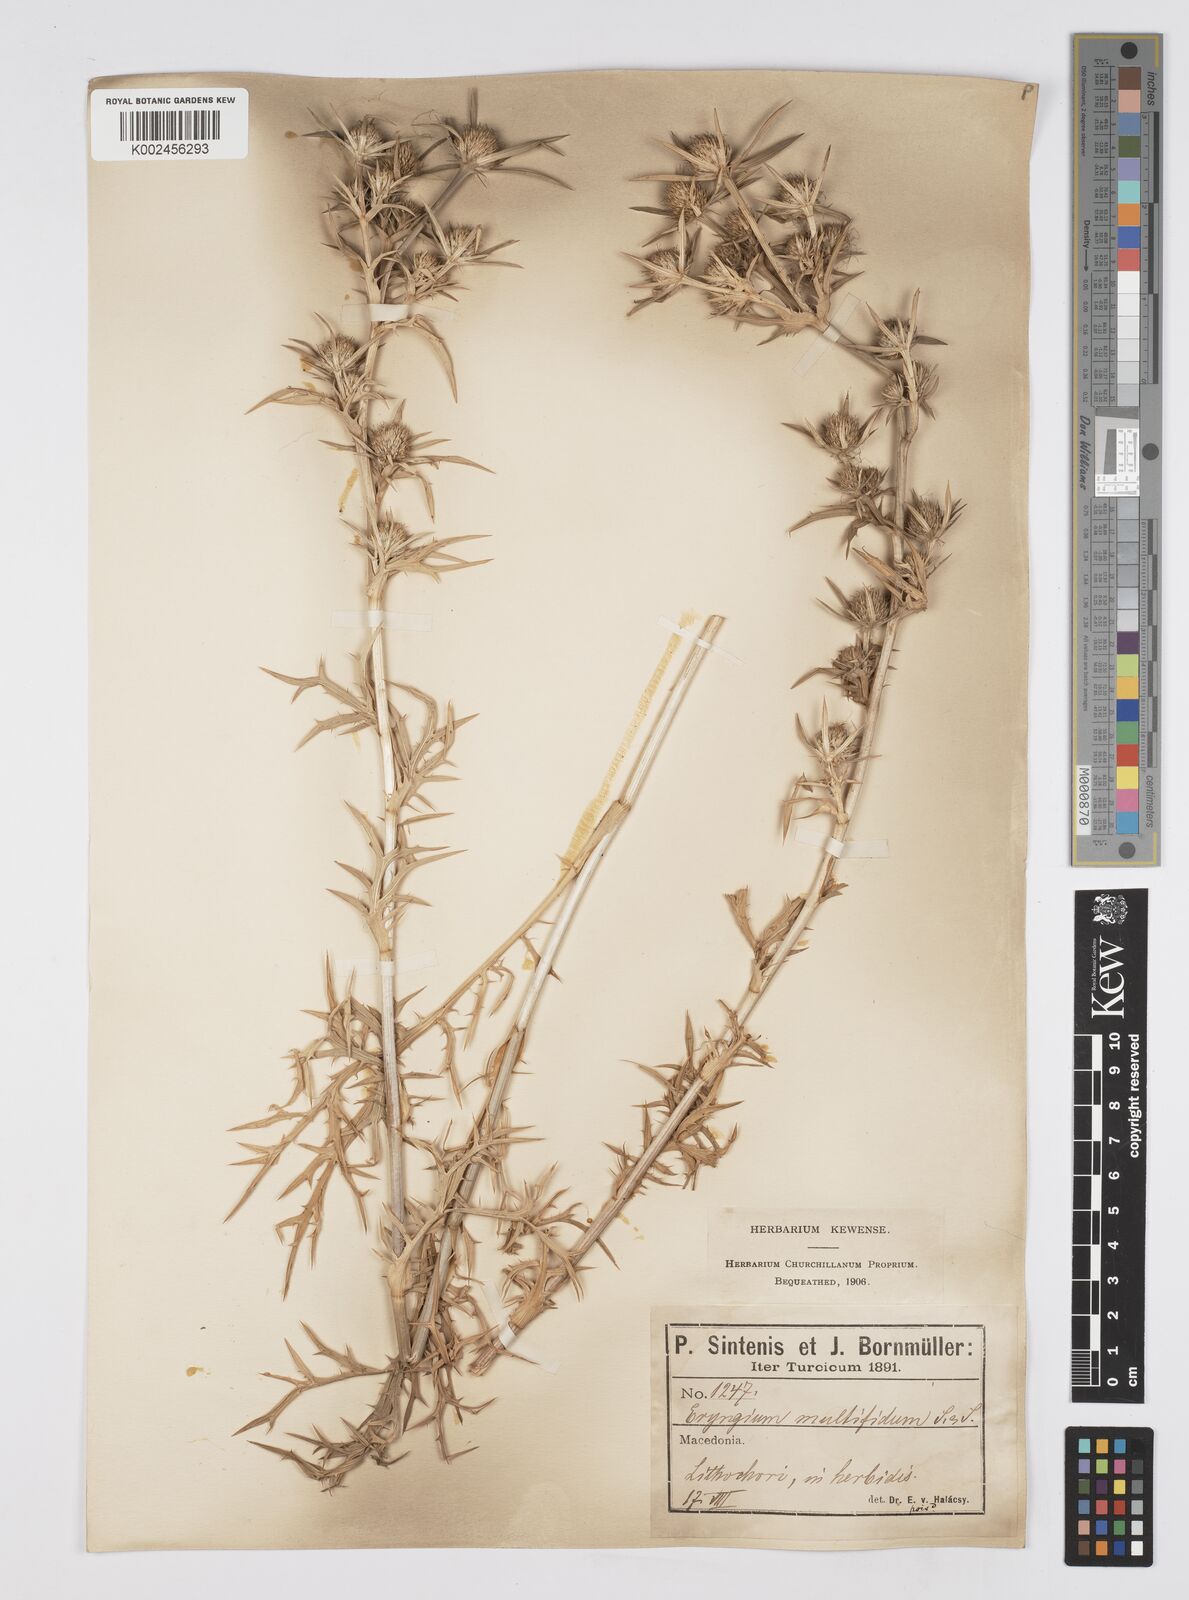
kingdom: Plantae
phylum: Tracheophyta
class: Magnoliopsida
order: Apiales
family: Apiaceae
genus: Eryngium
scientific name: Eryngium amethystinum
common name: Amethyst eryngo
